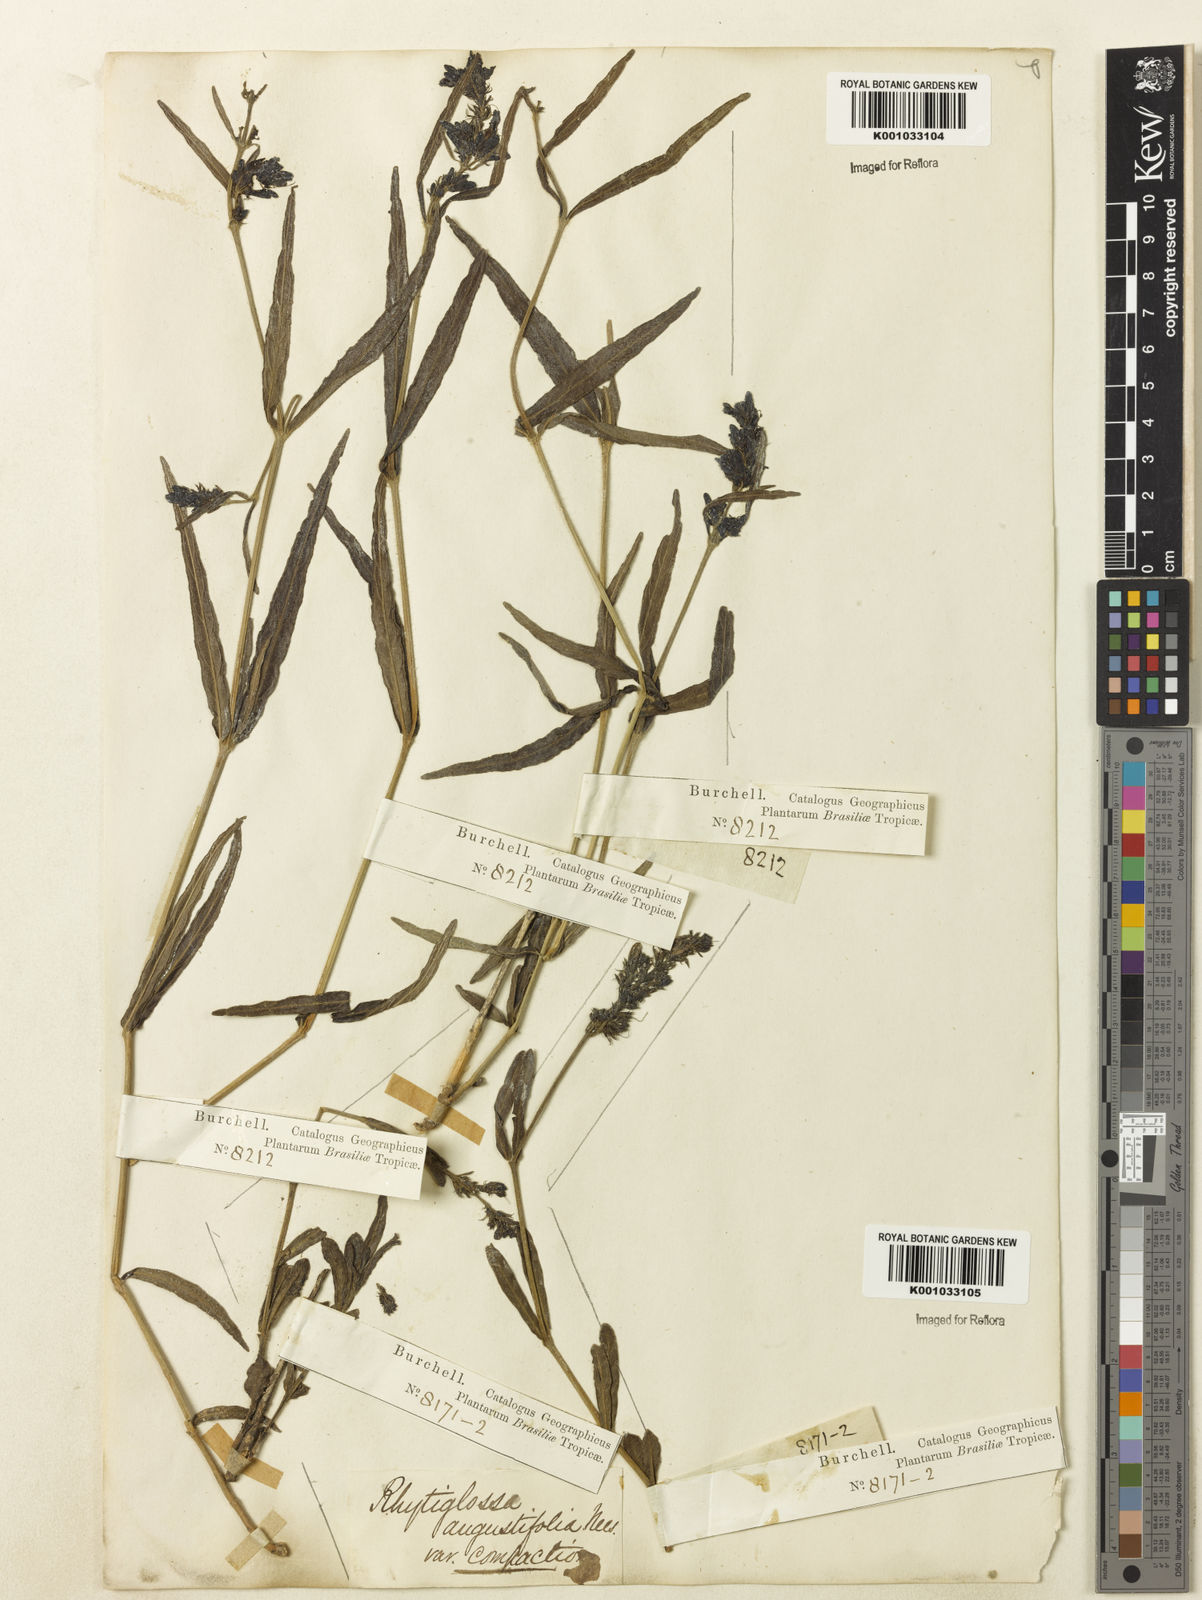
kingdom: Plantae
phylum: Tracheophyta
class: Magnoliopsida
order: Lamiales
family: Acanthaceae
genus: Dianthera
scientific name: Dianthera angustifolia
